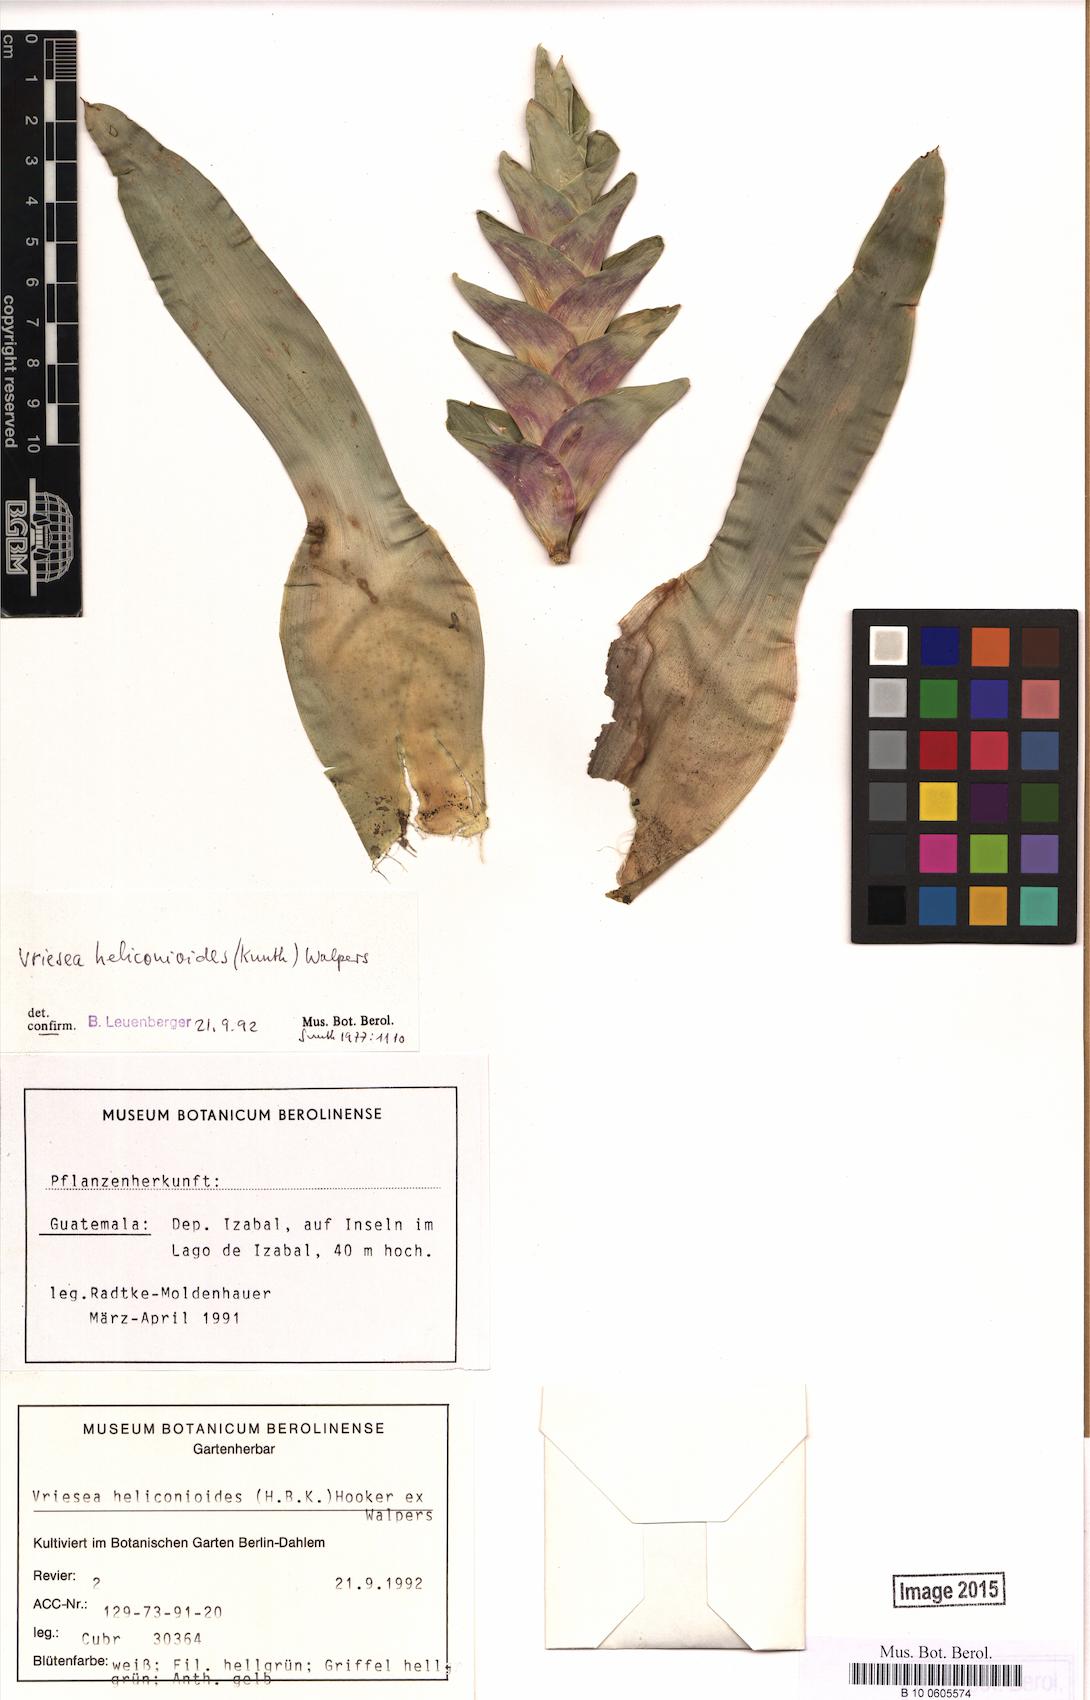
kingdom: Plantae
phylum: Tracheophyta
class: Liliopsida
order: Poales
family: Bromeliaceae
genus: Tillandsia
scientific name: Tillandsia heliconioides
